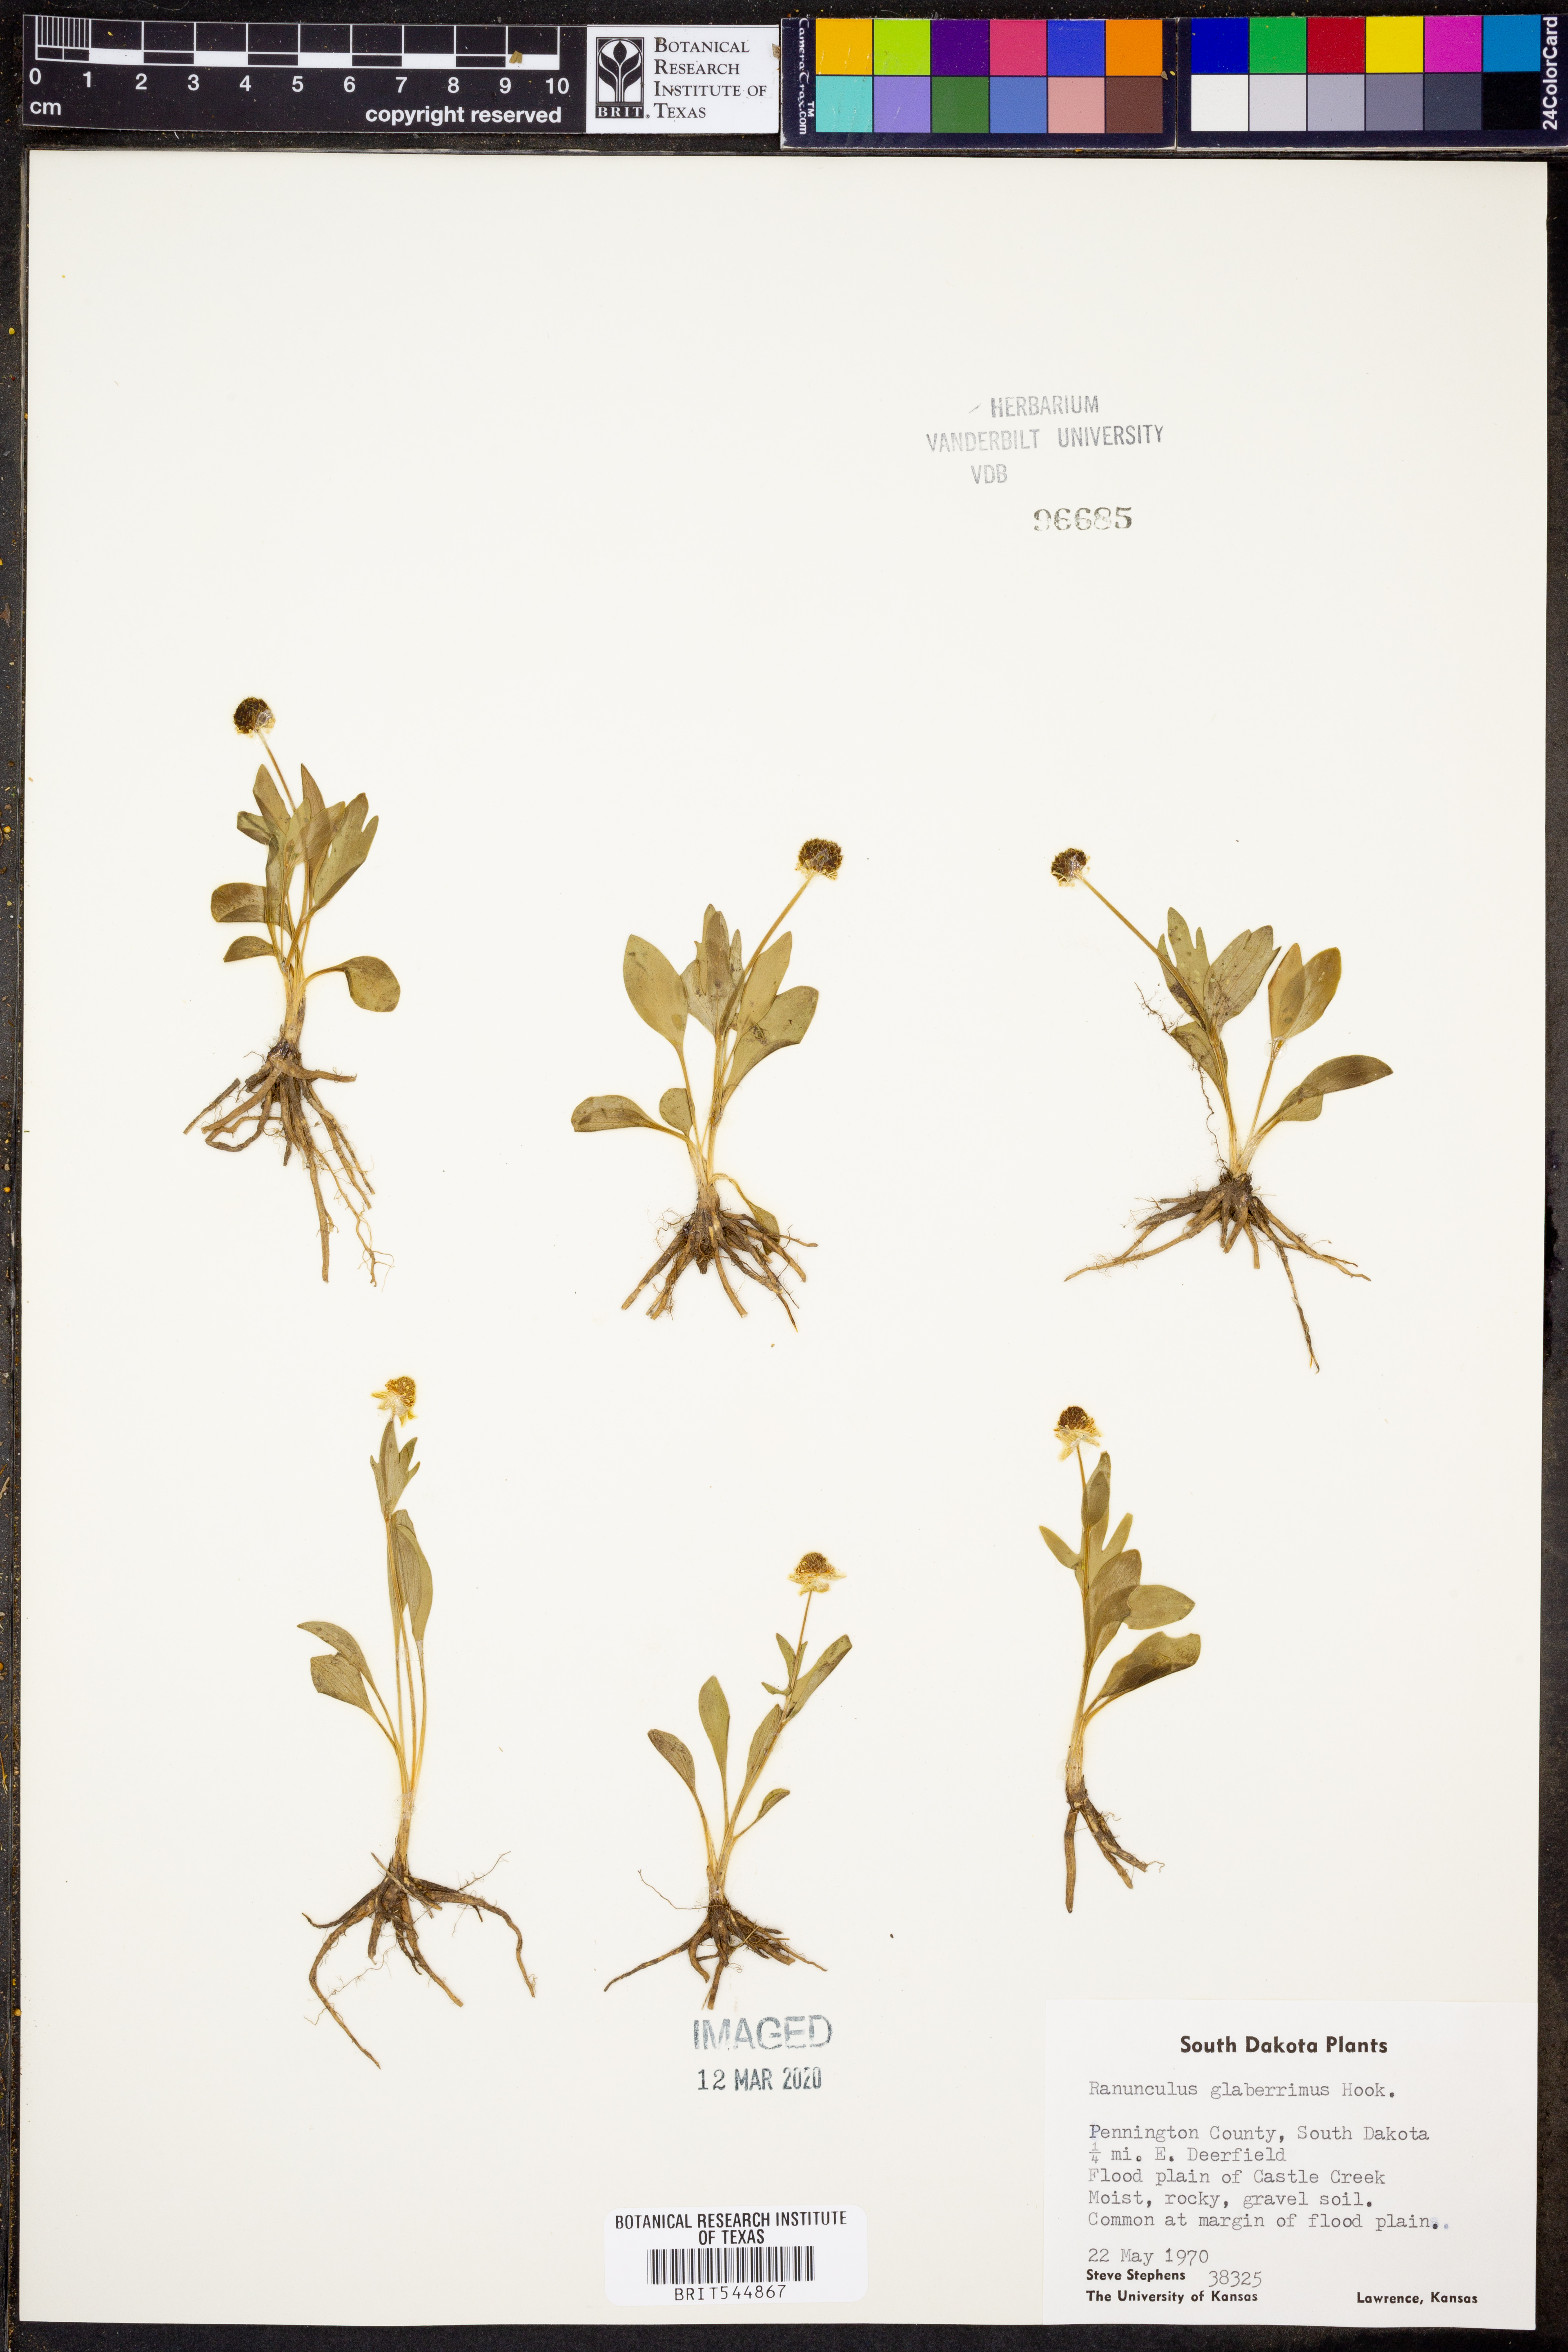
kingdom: Plantae
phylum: Tracheophyta
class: Magnoliopsida
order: Ranunculales
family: Ranunculaceae
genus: Ranunculus
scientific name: Ranunculus glaberrimus
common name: Sagebrush buttercup
